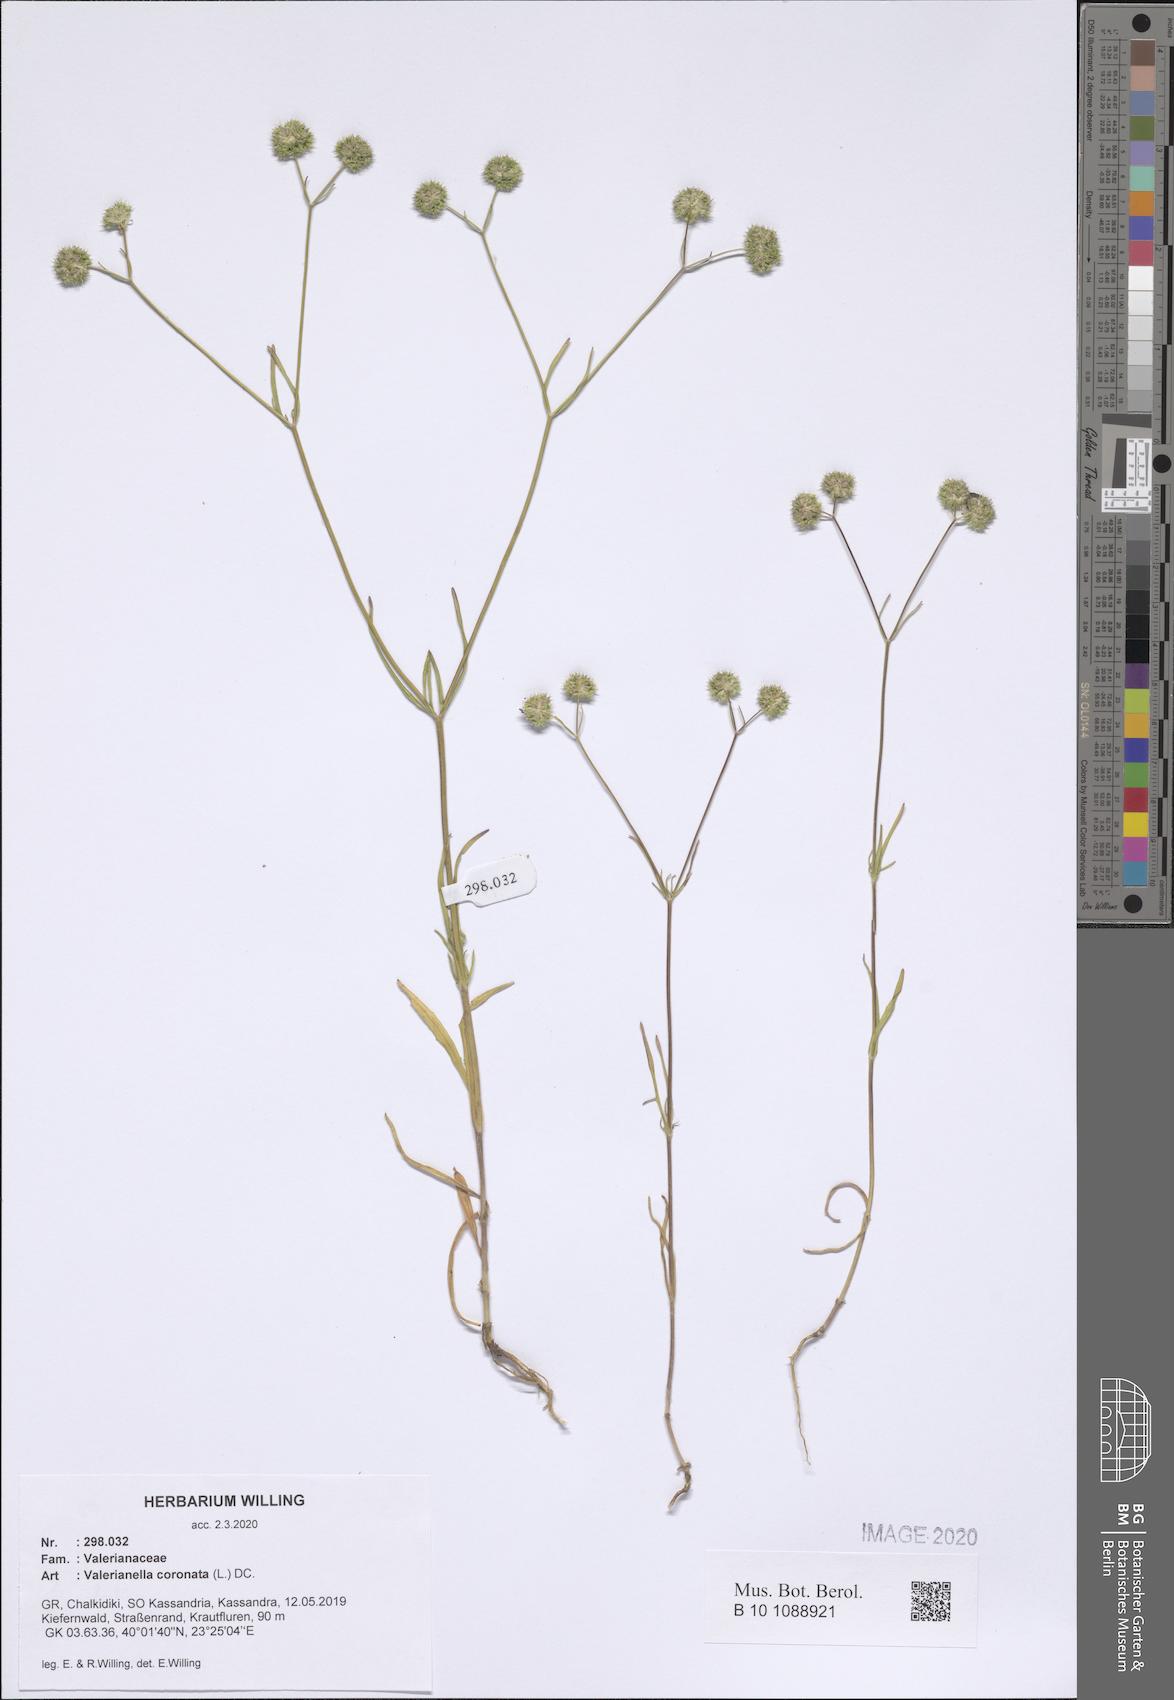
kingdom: Plantae
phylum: Tracheophyta
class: Magnoliopsida
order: Dipsacales
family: Caprifoliaceae
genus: Valerianella
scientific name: Valerianella coronata
